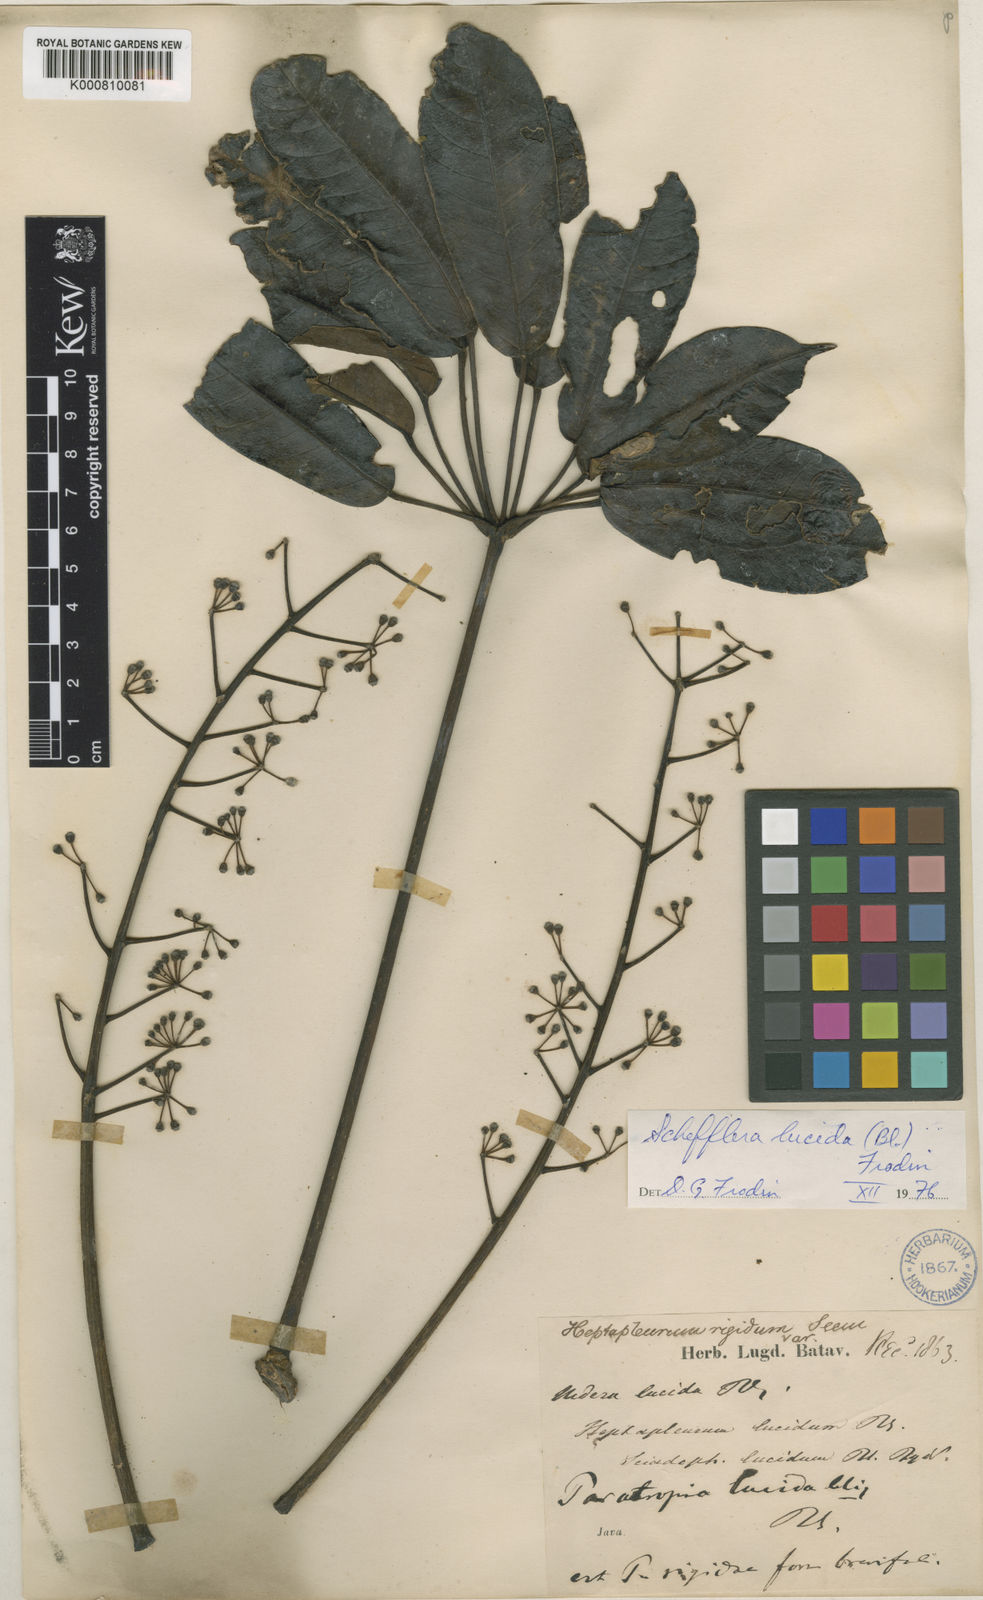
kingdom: Plantae
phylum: Tracheophyta
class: Magnoliopsida
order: Apiales
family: Araliaceae
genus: Heptapleurum
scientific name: Heptapleurum rigidum
